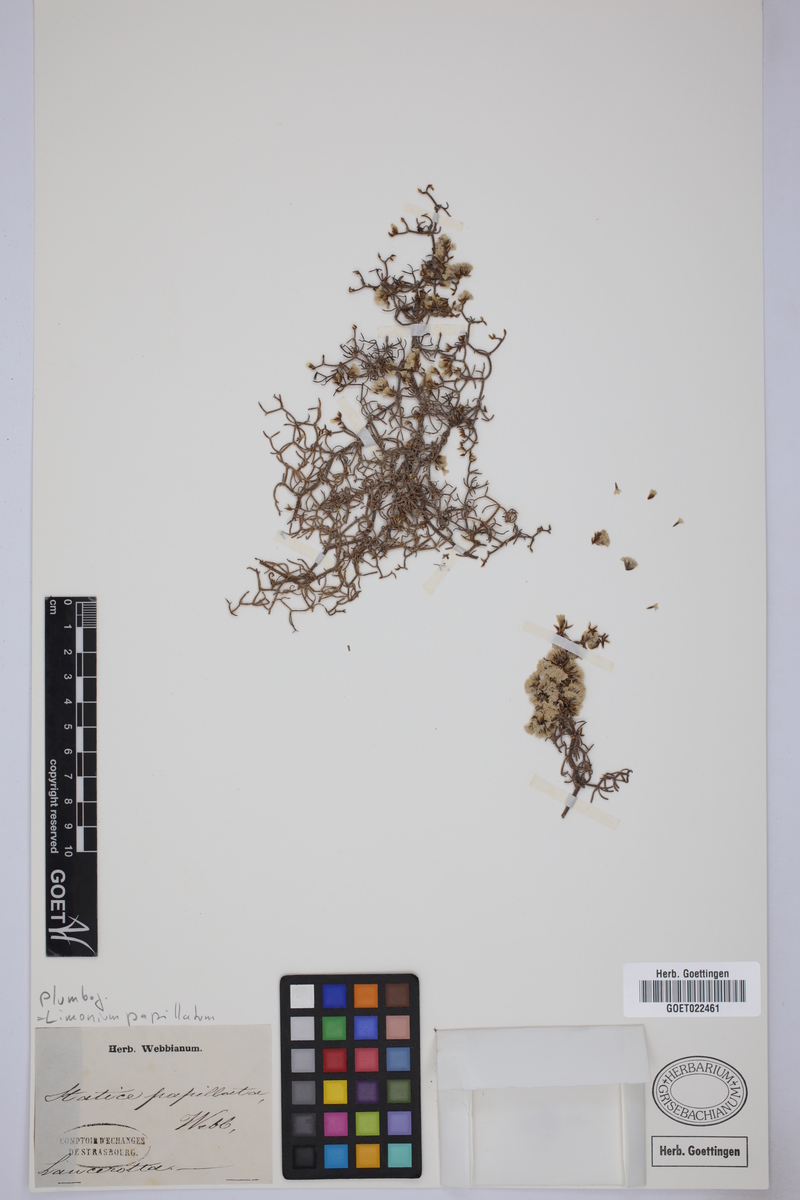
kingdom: Plantae
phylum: Tracheophyta
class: Magnoliopsida
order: Caryophyllales
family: Plumbaginaceae
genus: Limonium
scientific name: Limonium papillatum
